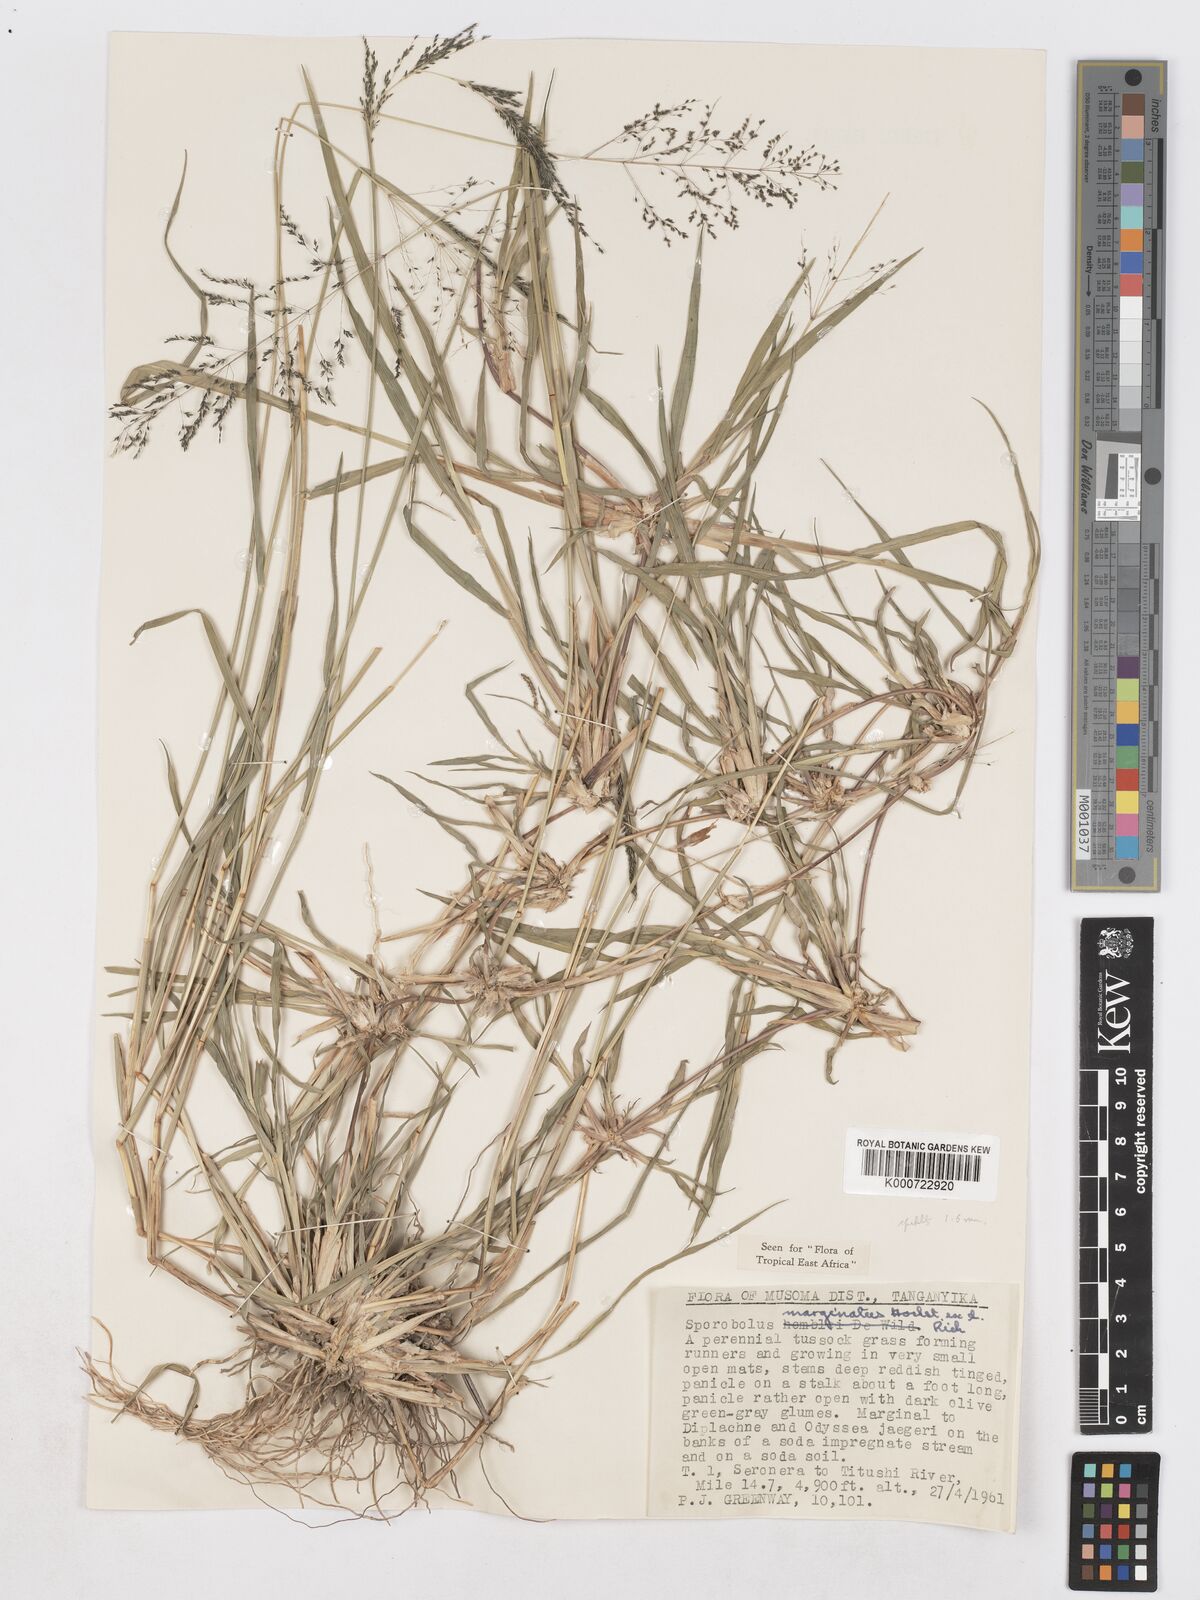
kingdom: Plantae
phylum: Tracheophyta
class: Liliopsida
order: Poales
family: Poaceae
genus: Sporobolus
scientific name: Sporobolus ioclados
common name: Pan dropseed
